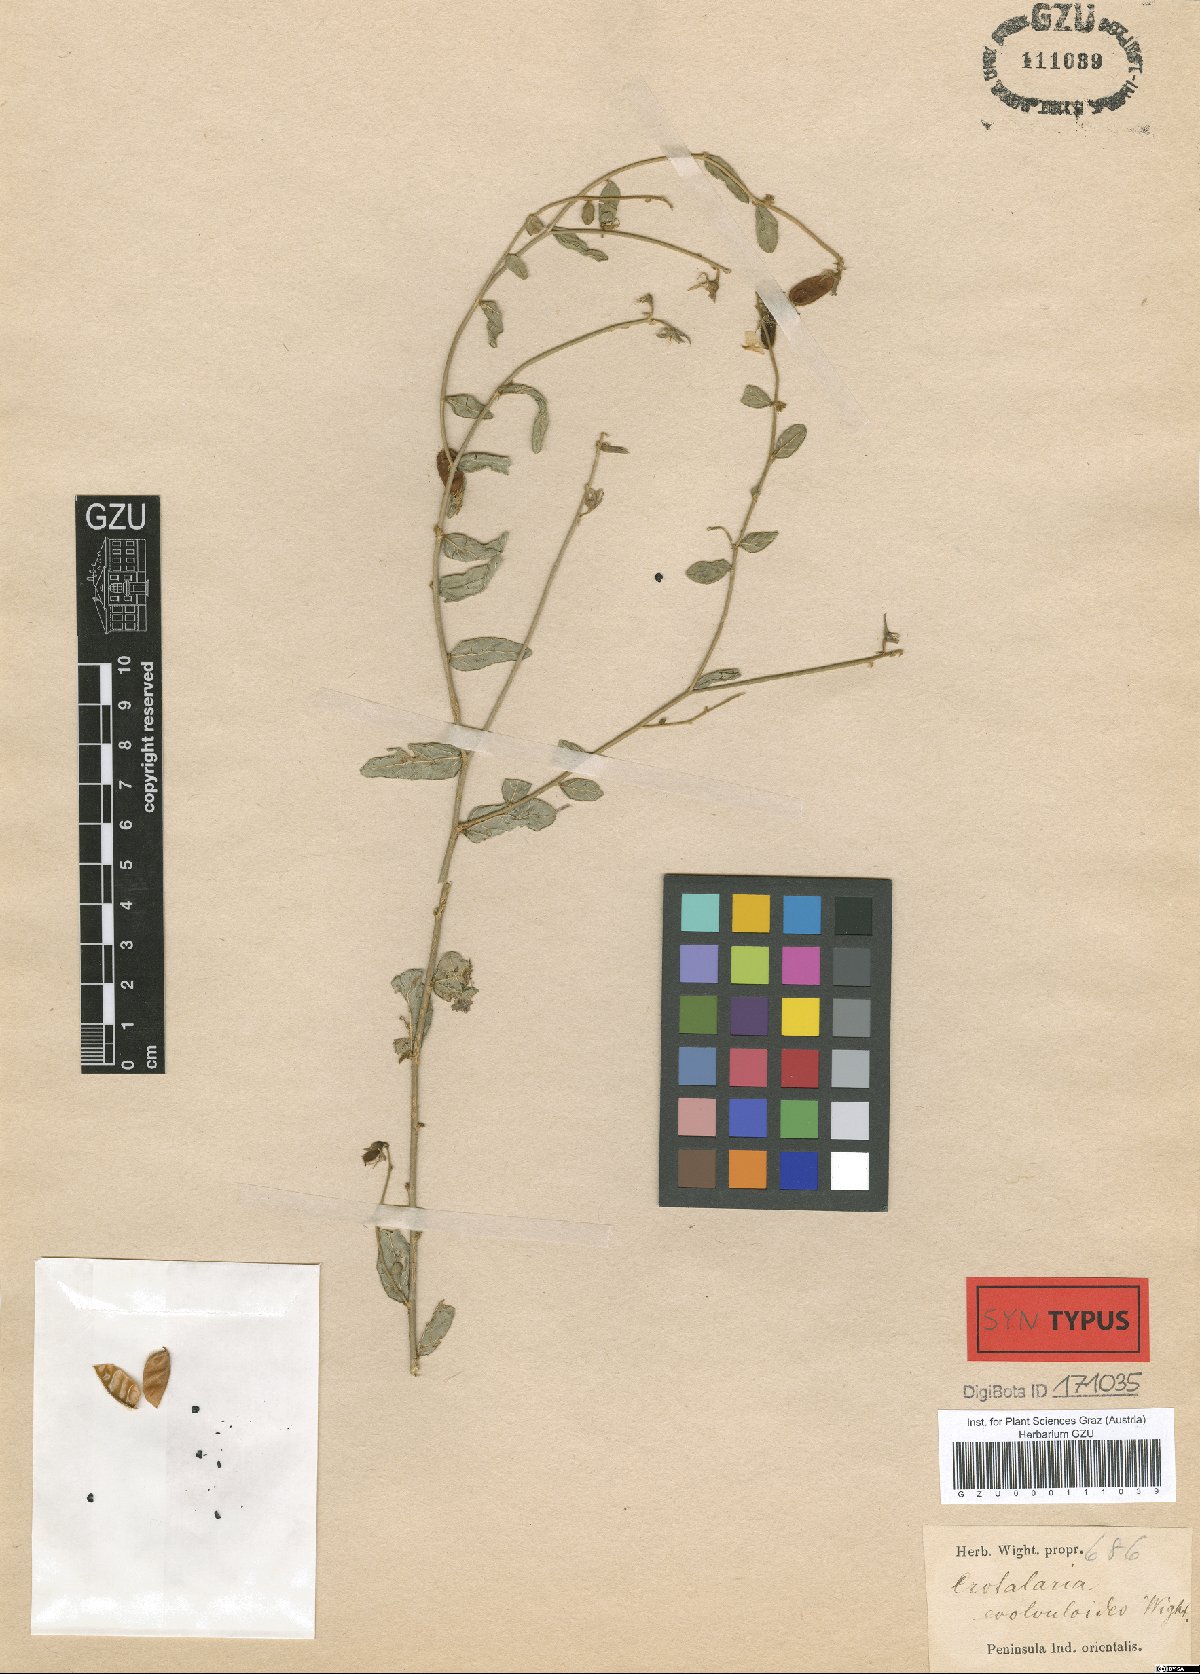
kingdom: Plantae
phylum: Tracheophyta
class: Magnoliopsida
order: Fabales
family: Fabaceae
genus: Crotalaria
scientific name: Crotalaria evolvuloides
